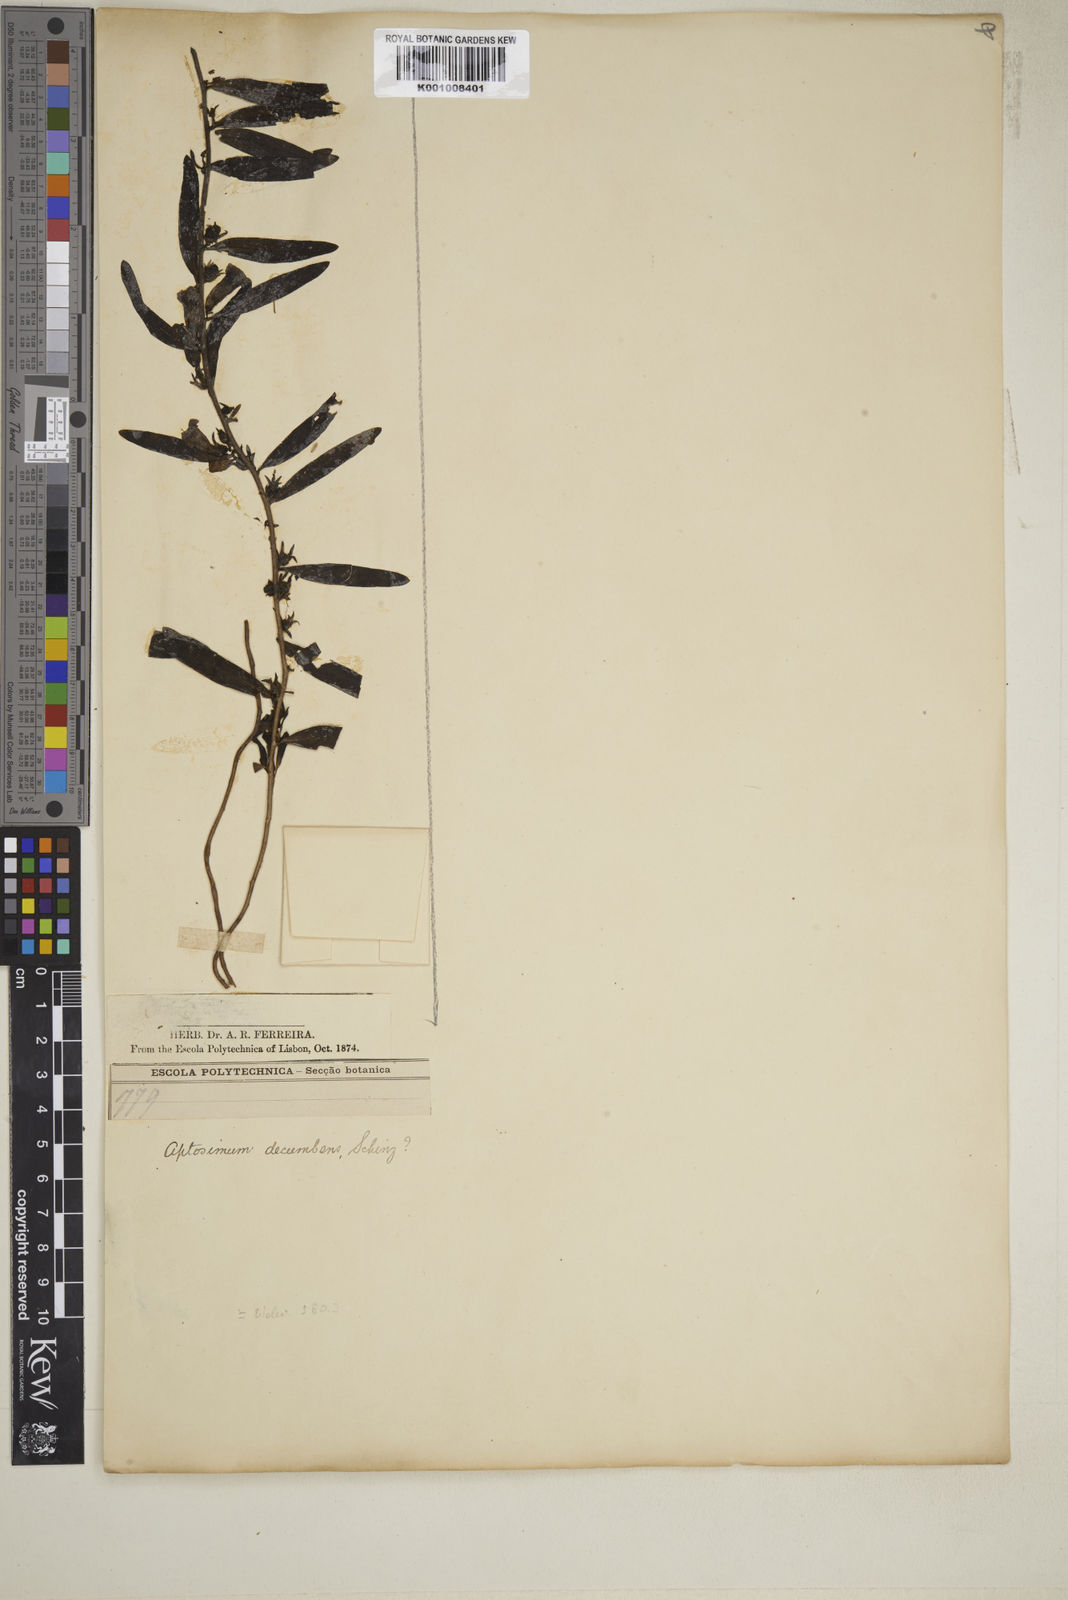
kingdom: Plantae
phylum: Tracheophyta
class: Magnoliopsida
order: Lamiales
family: Scrophulariaceae
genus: Aptosimum
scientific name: Aptosimum decumbens
